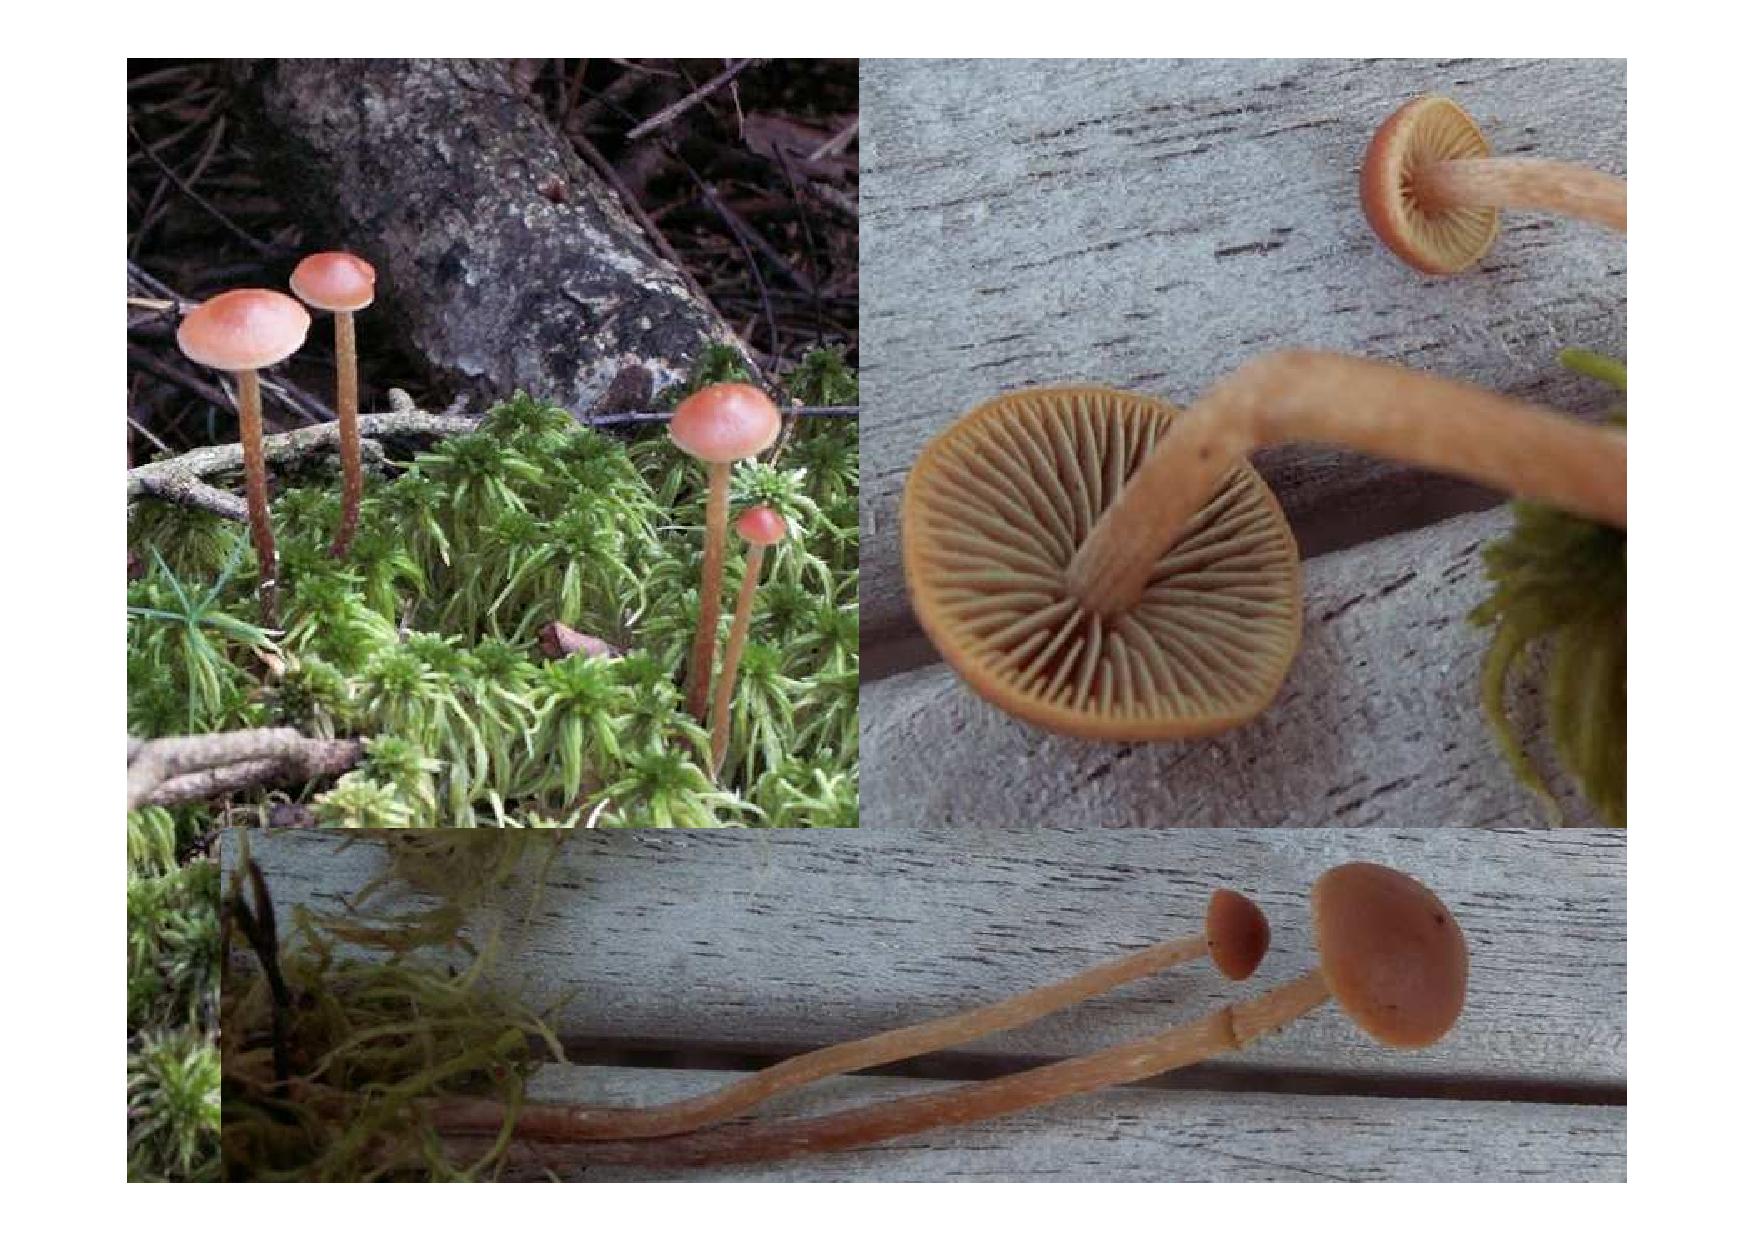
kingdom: Fungi
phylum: Basidiomycota
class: Agaricomycetes
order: Agaricales
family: Strophariaceae
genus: Bogbodia
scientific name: Bogbodia uda
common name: tørve-svovlhat
